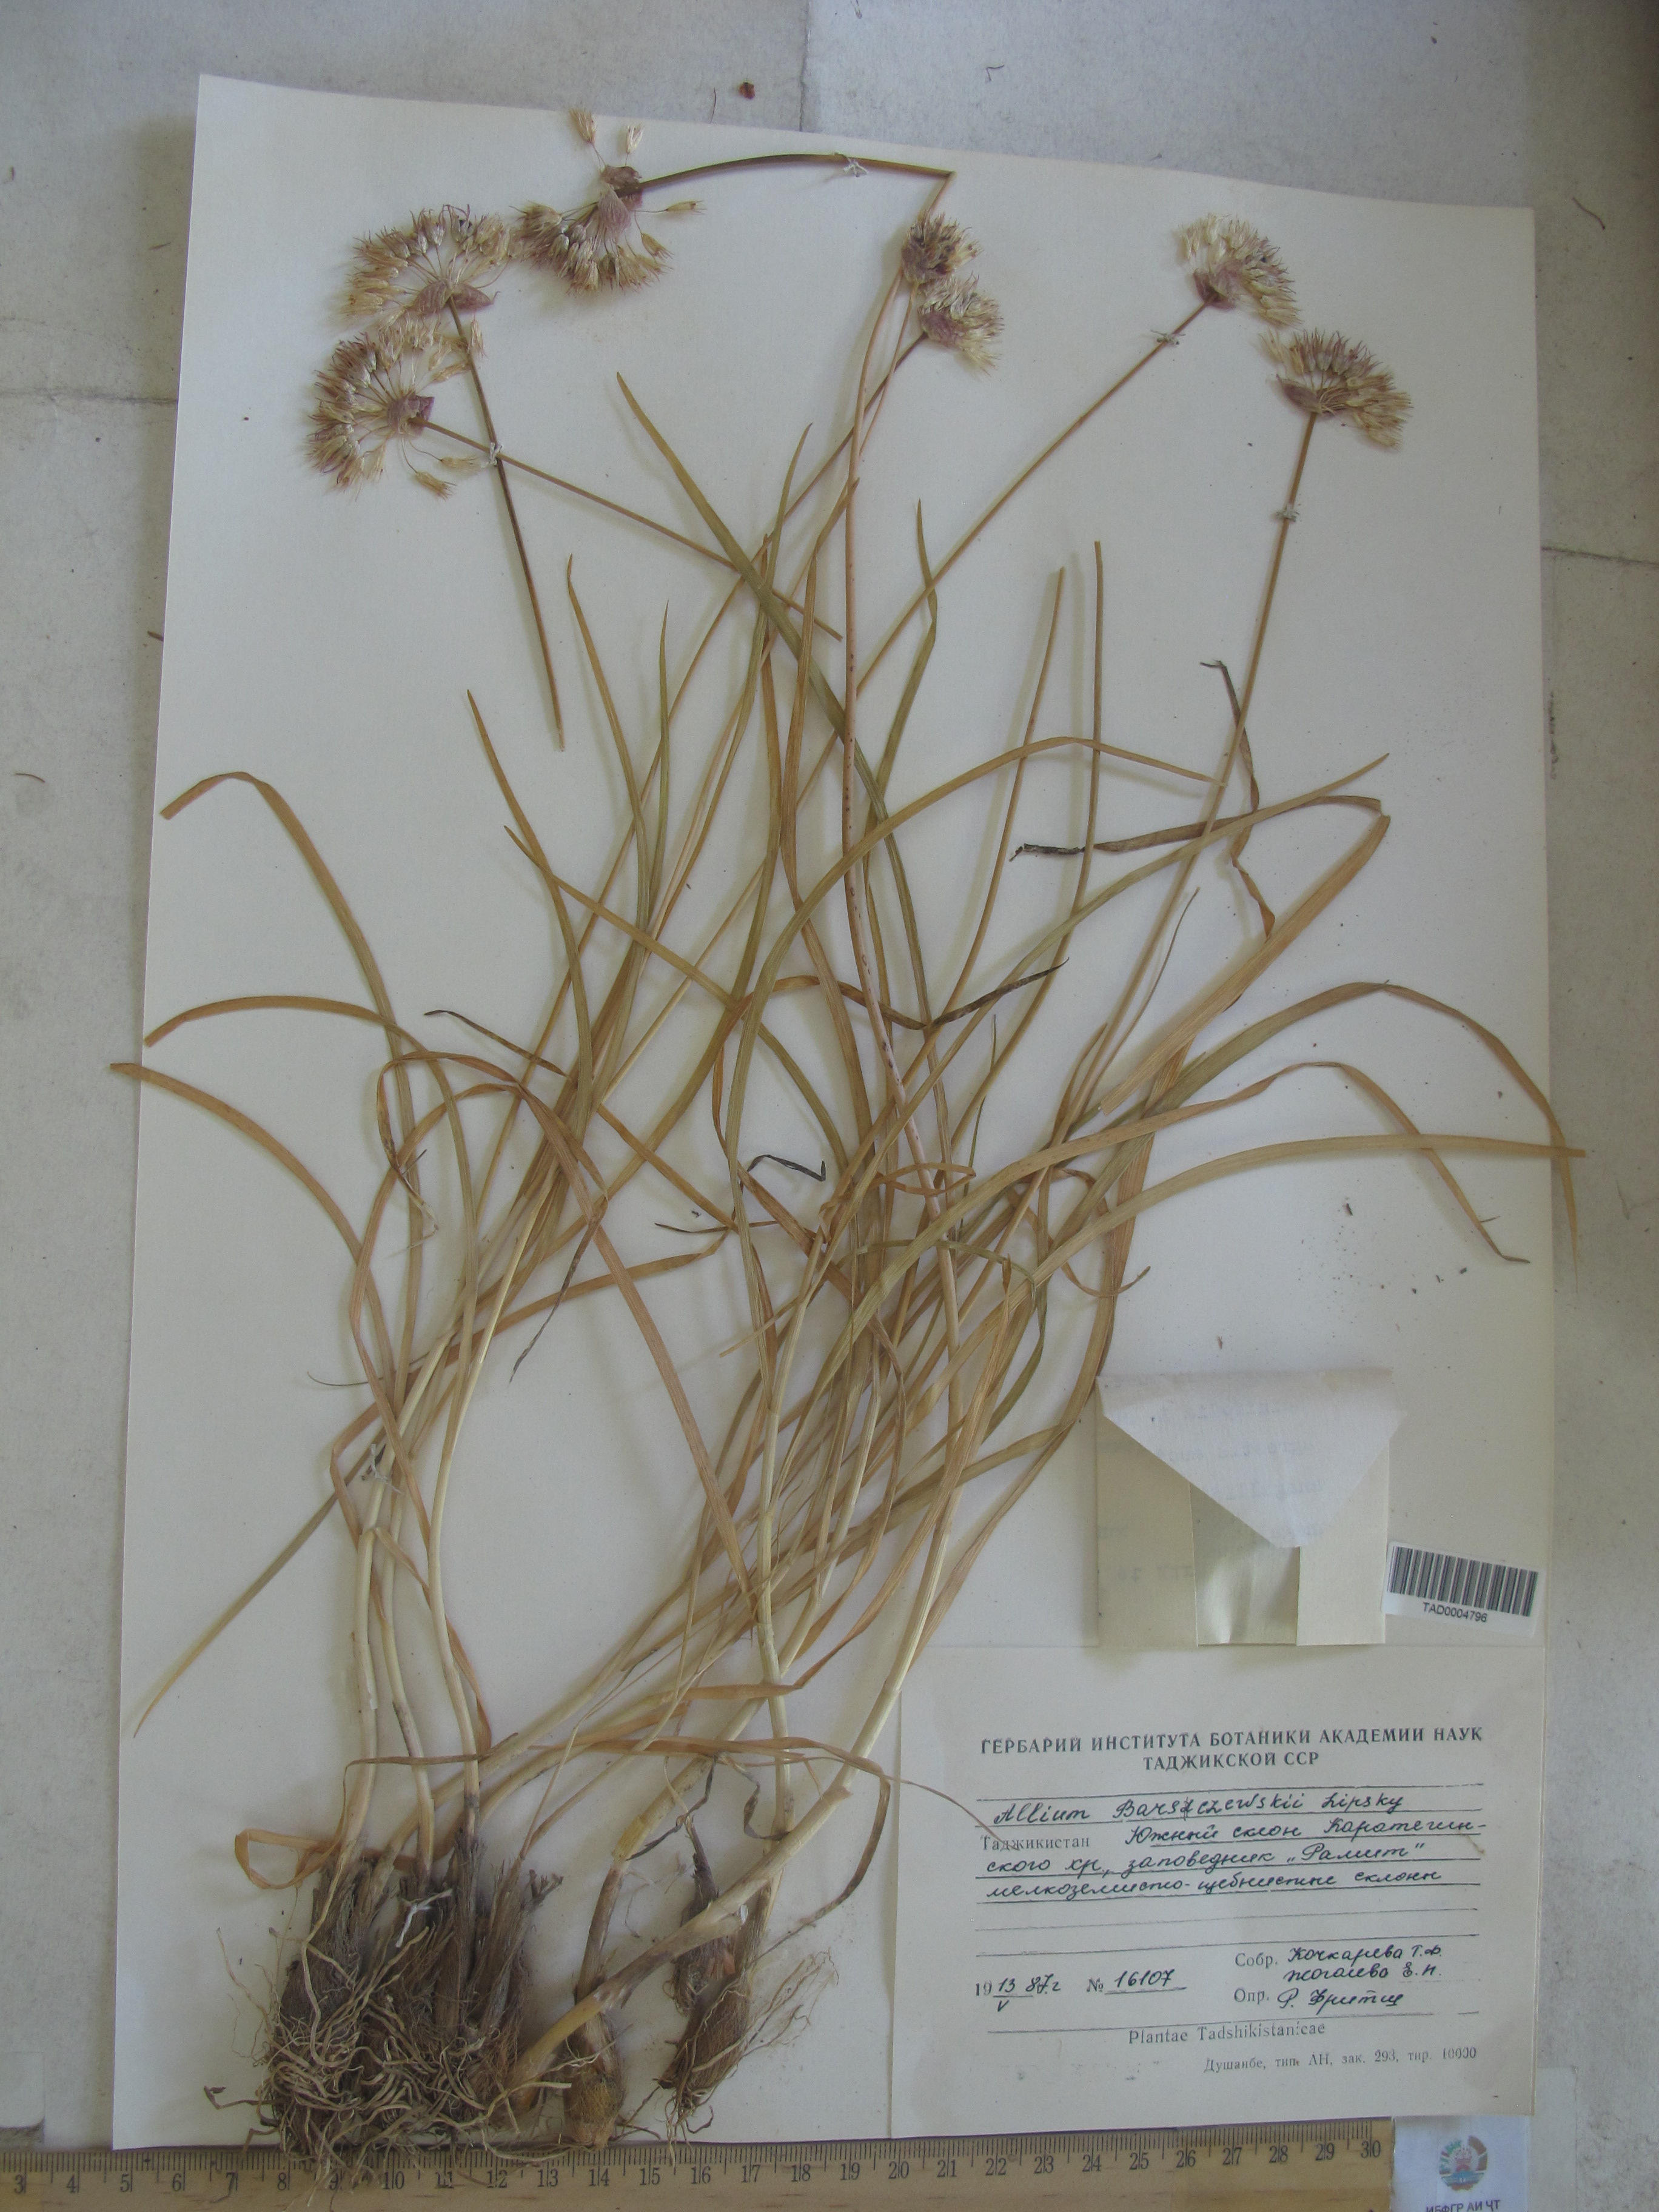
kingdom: Plantae
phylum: Tracheophyta
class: Liliopsida
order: Asparagales
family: Amaryllidaceae
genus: Allium
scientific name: Allium barsczewskii
